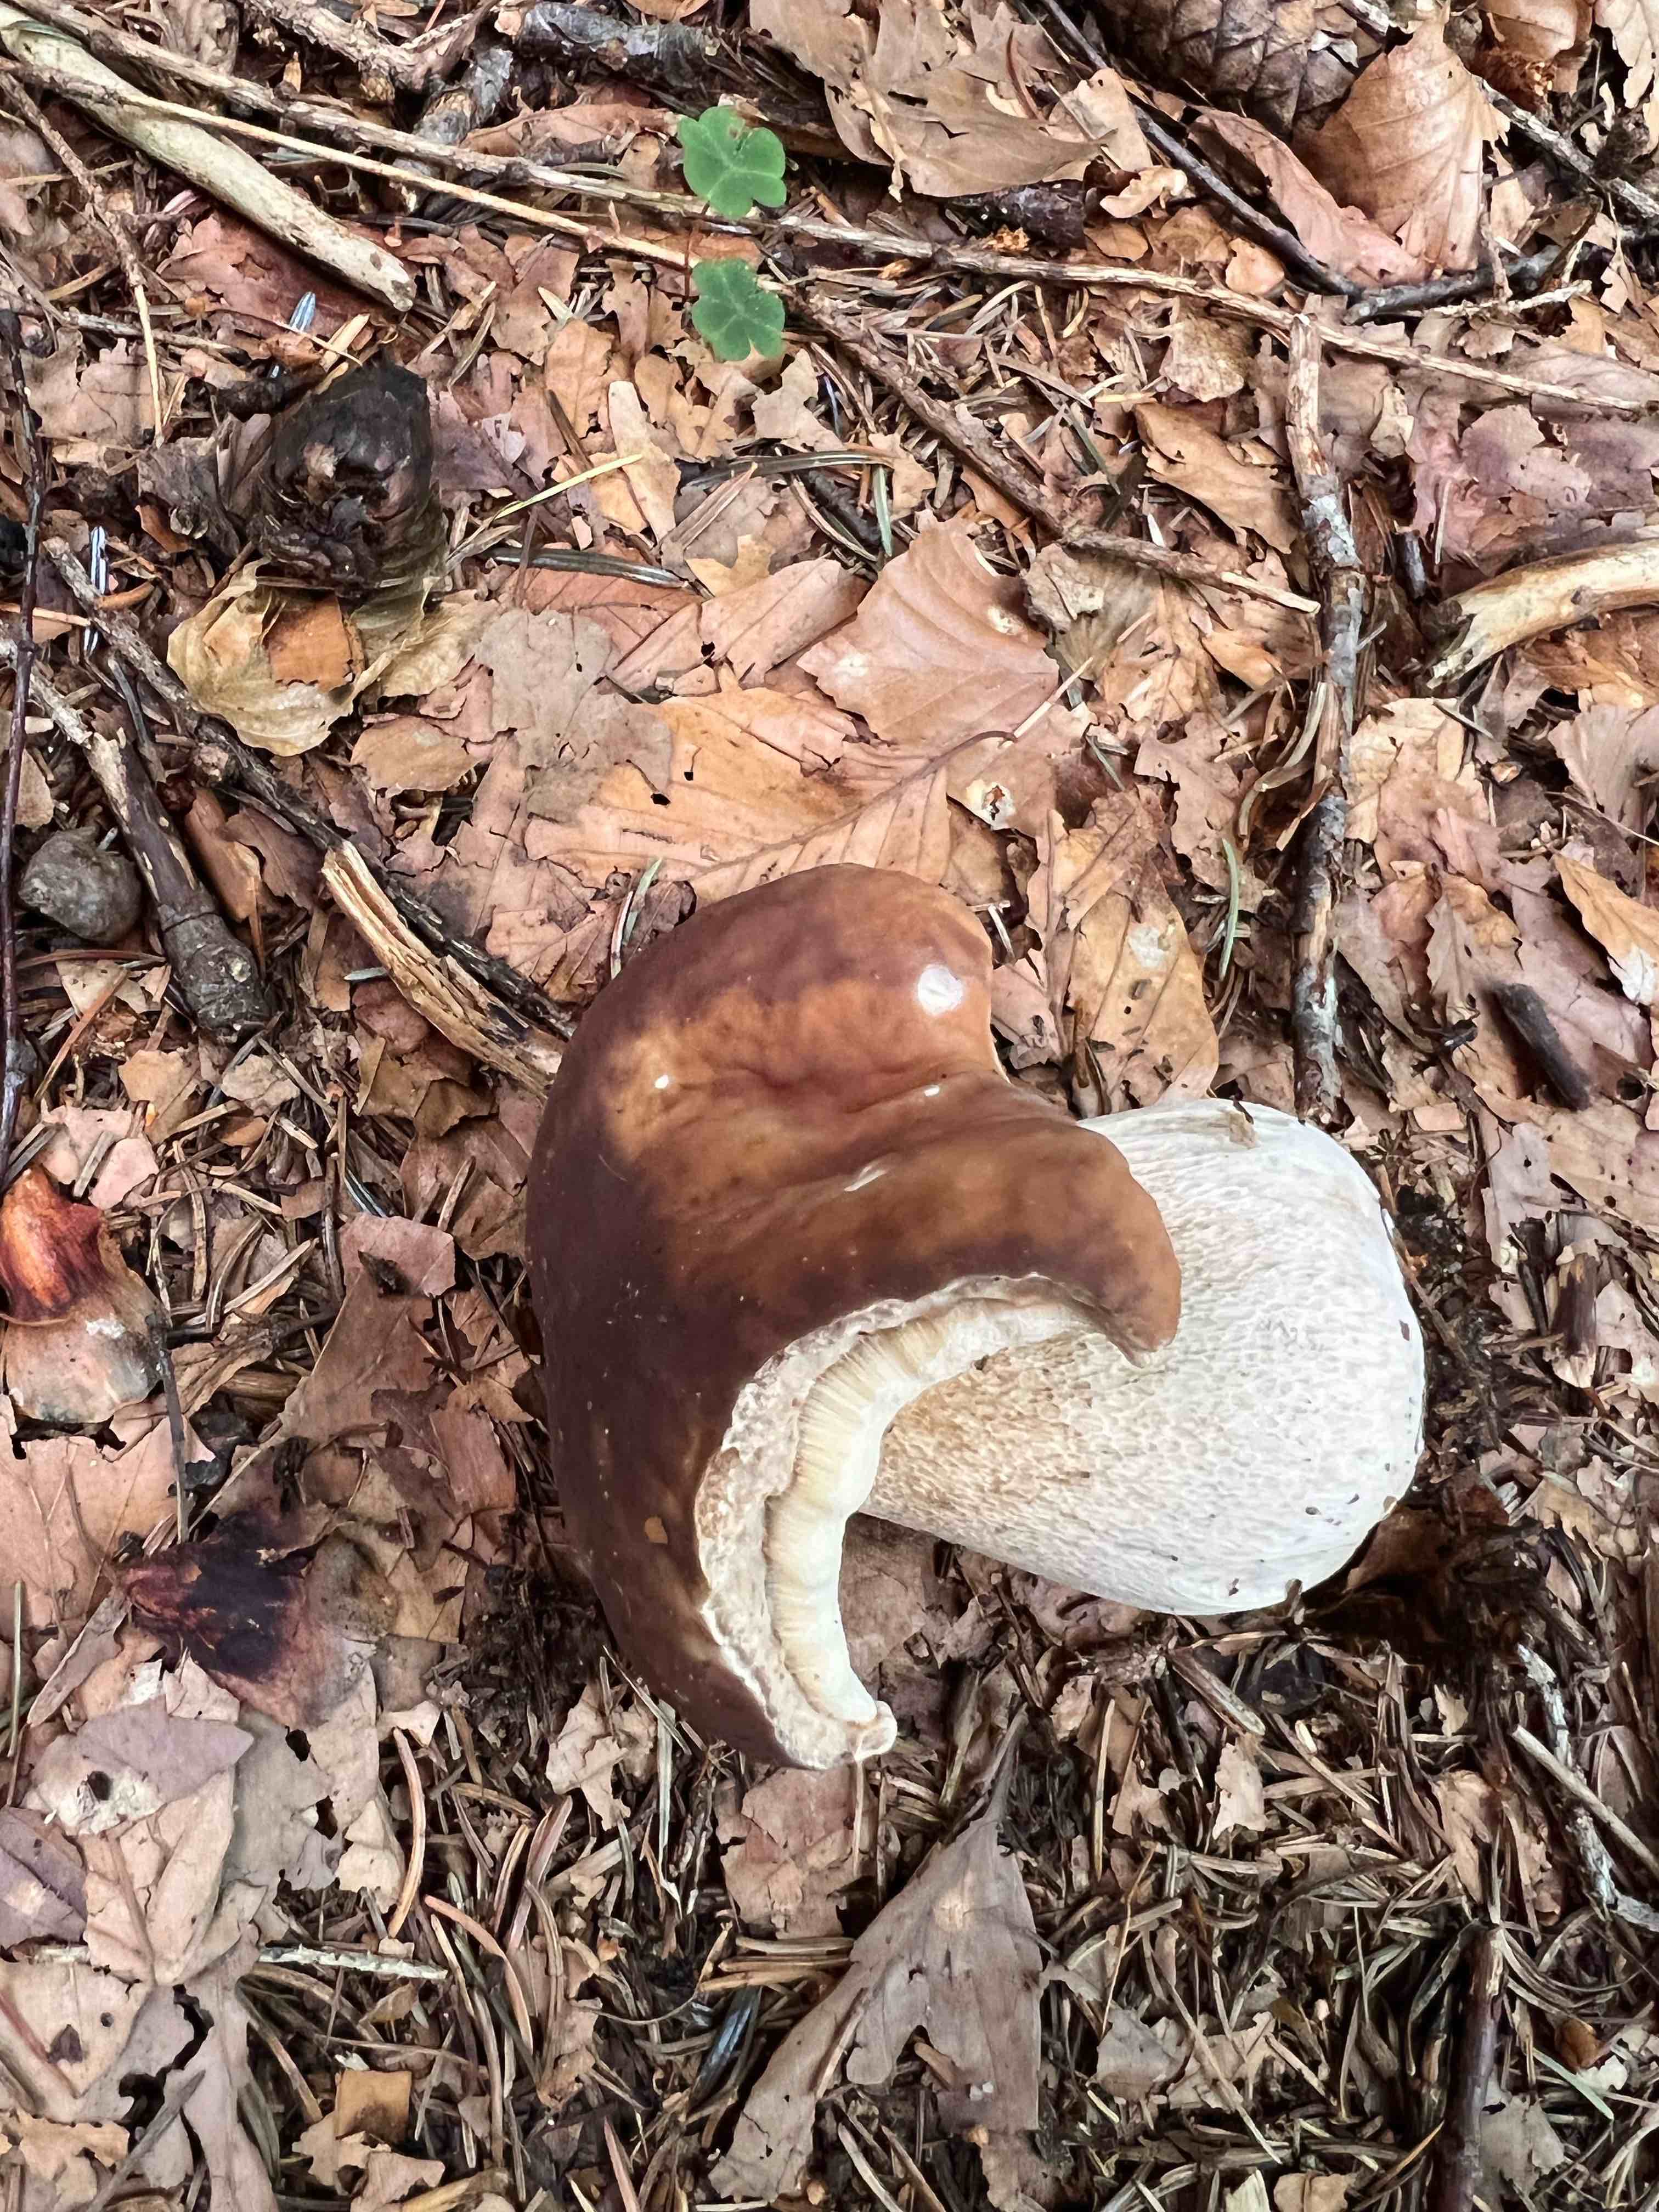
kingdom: Fungi
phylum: Basidiomycota
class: Agaricomycetes
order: Boletales
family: Boletaceae
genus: Boletus
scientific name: Boletus edulis
